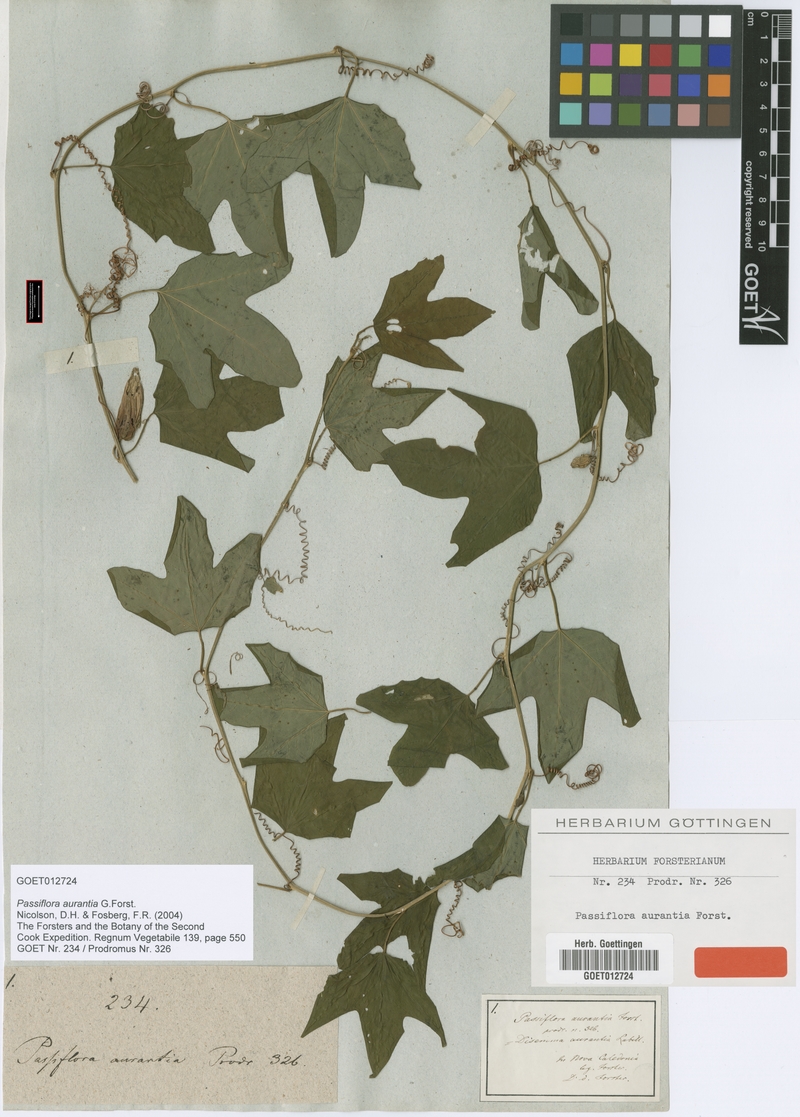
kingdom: Plantae
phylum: Tracheophyta
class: Magnoliopsida
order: Malpighiales
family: Passifloraceae
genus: Passiflora
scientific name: Passiflora aurantia
